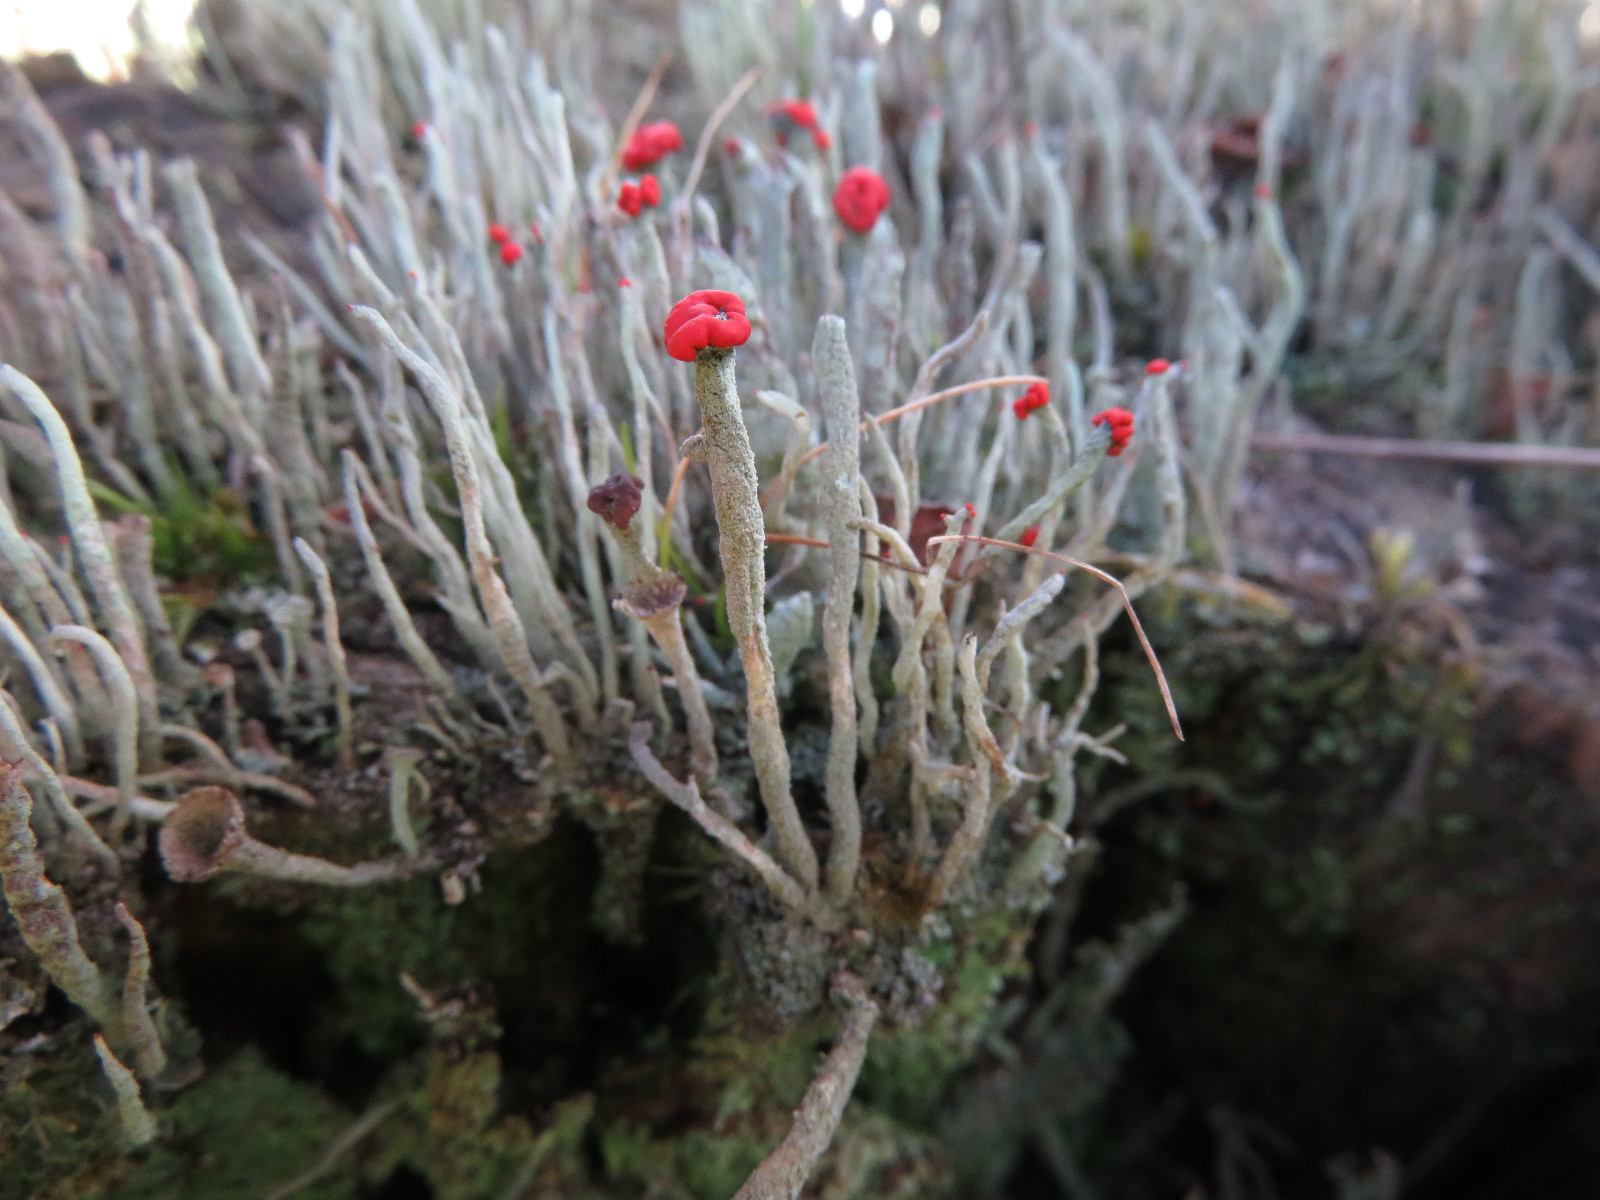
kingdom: Fungi
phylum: Ascomycota
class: Lecanoromycetes
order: Lecanorales
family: Cladoniaceae
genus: Cladonia
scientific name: Cladonia macilenta
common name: indsvunden bægerlav
